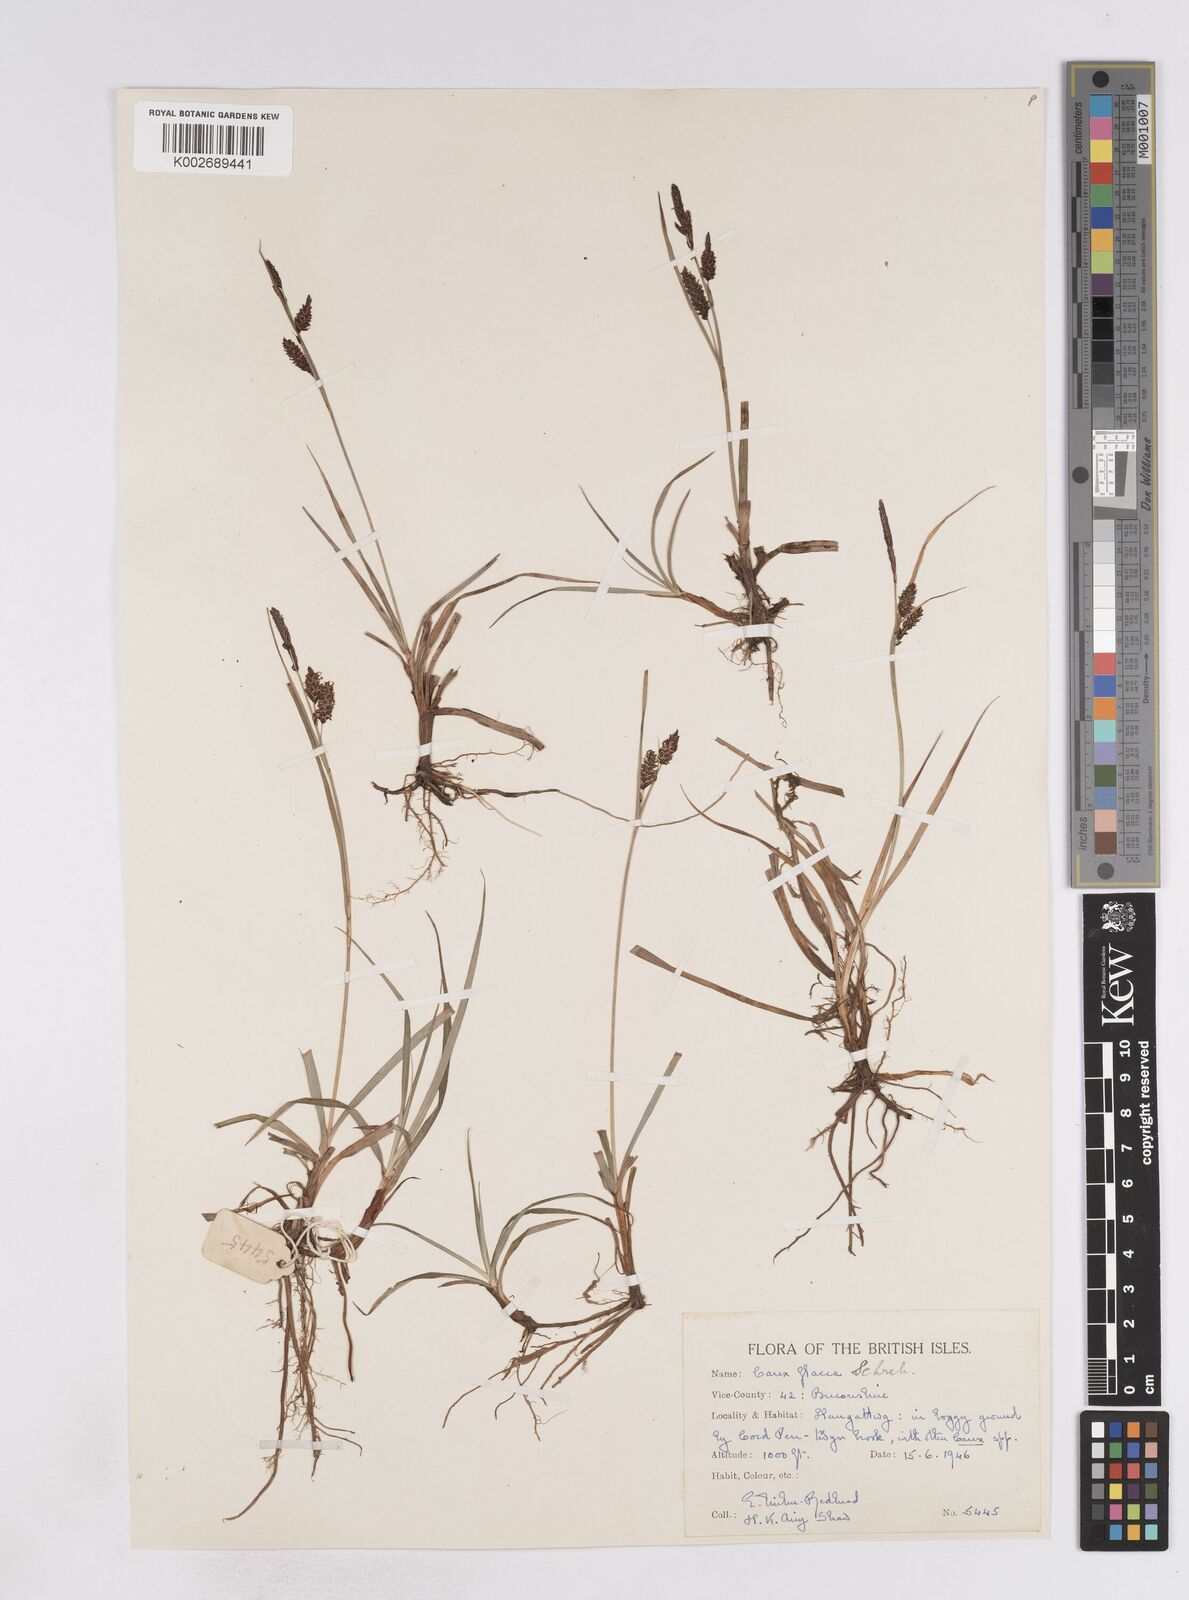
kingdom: Plantae
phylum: Tracheophyta
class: Liliopsida
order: Poales
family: Cyperaceae
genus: Carex
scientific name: Carex flacca
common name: Glaucous sedge
